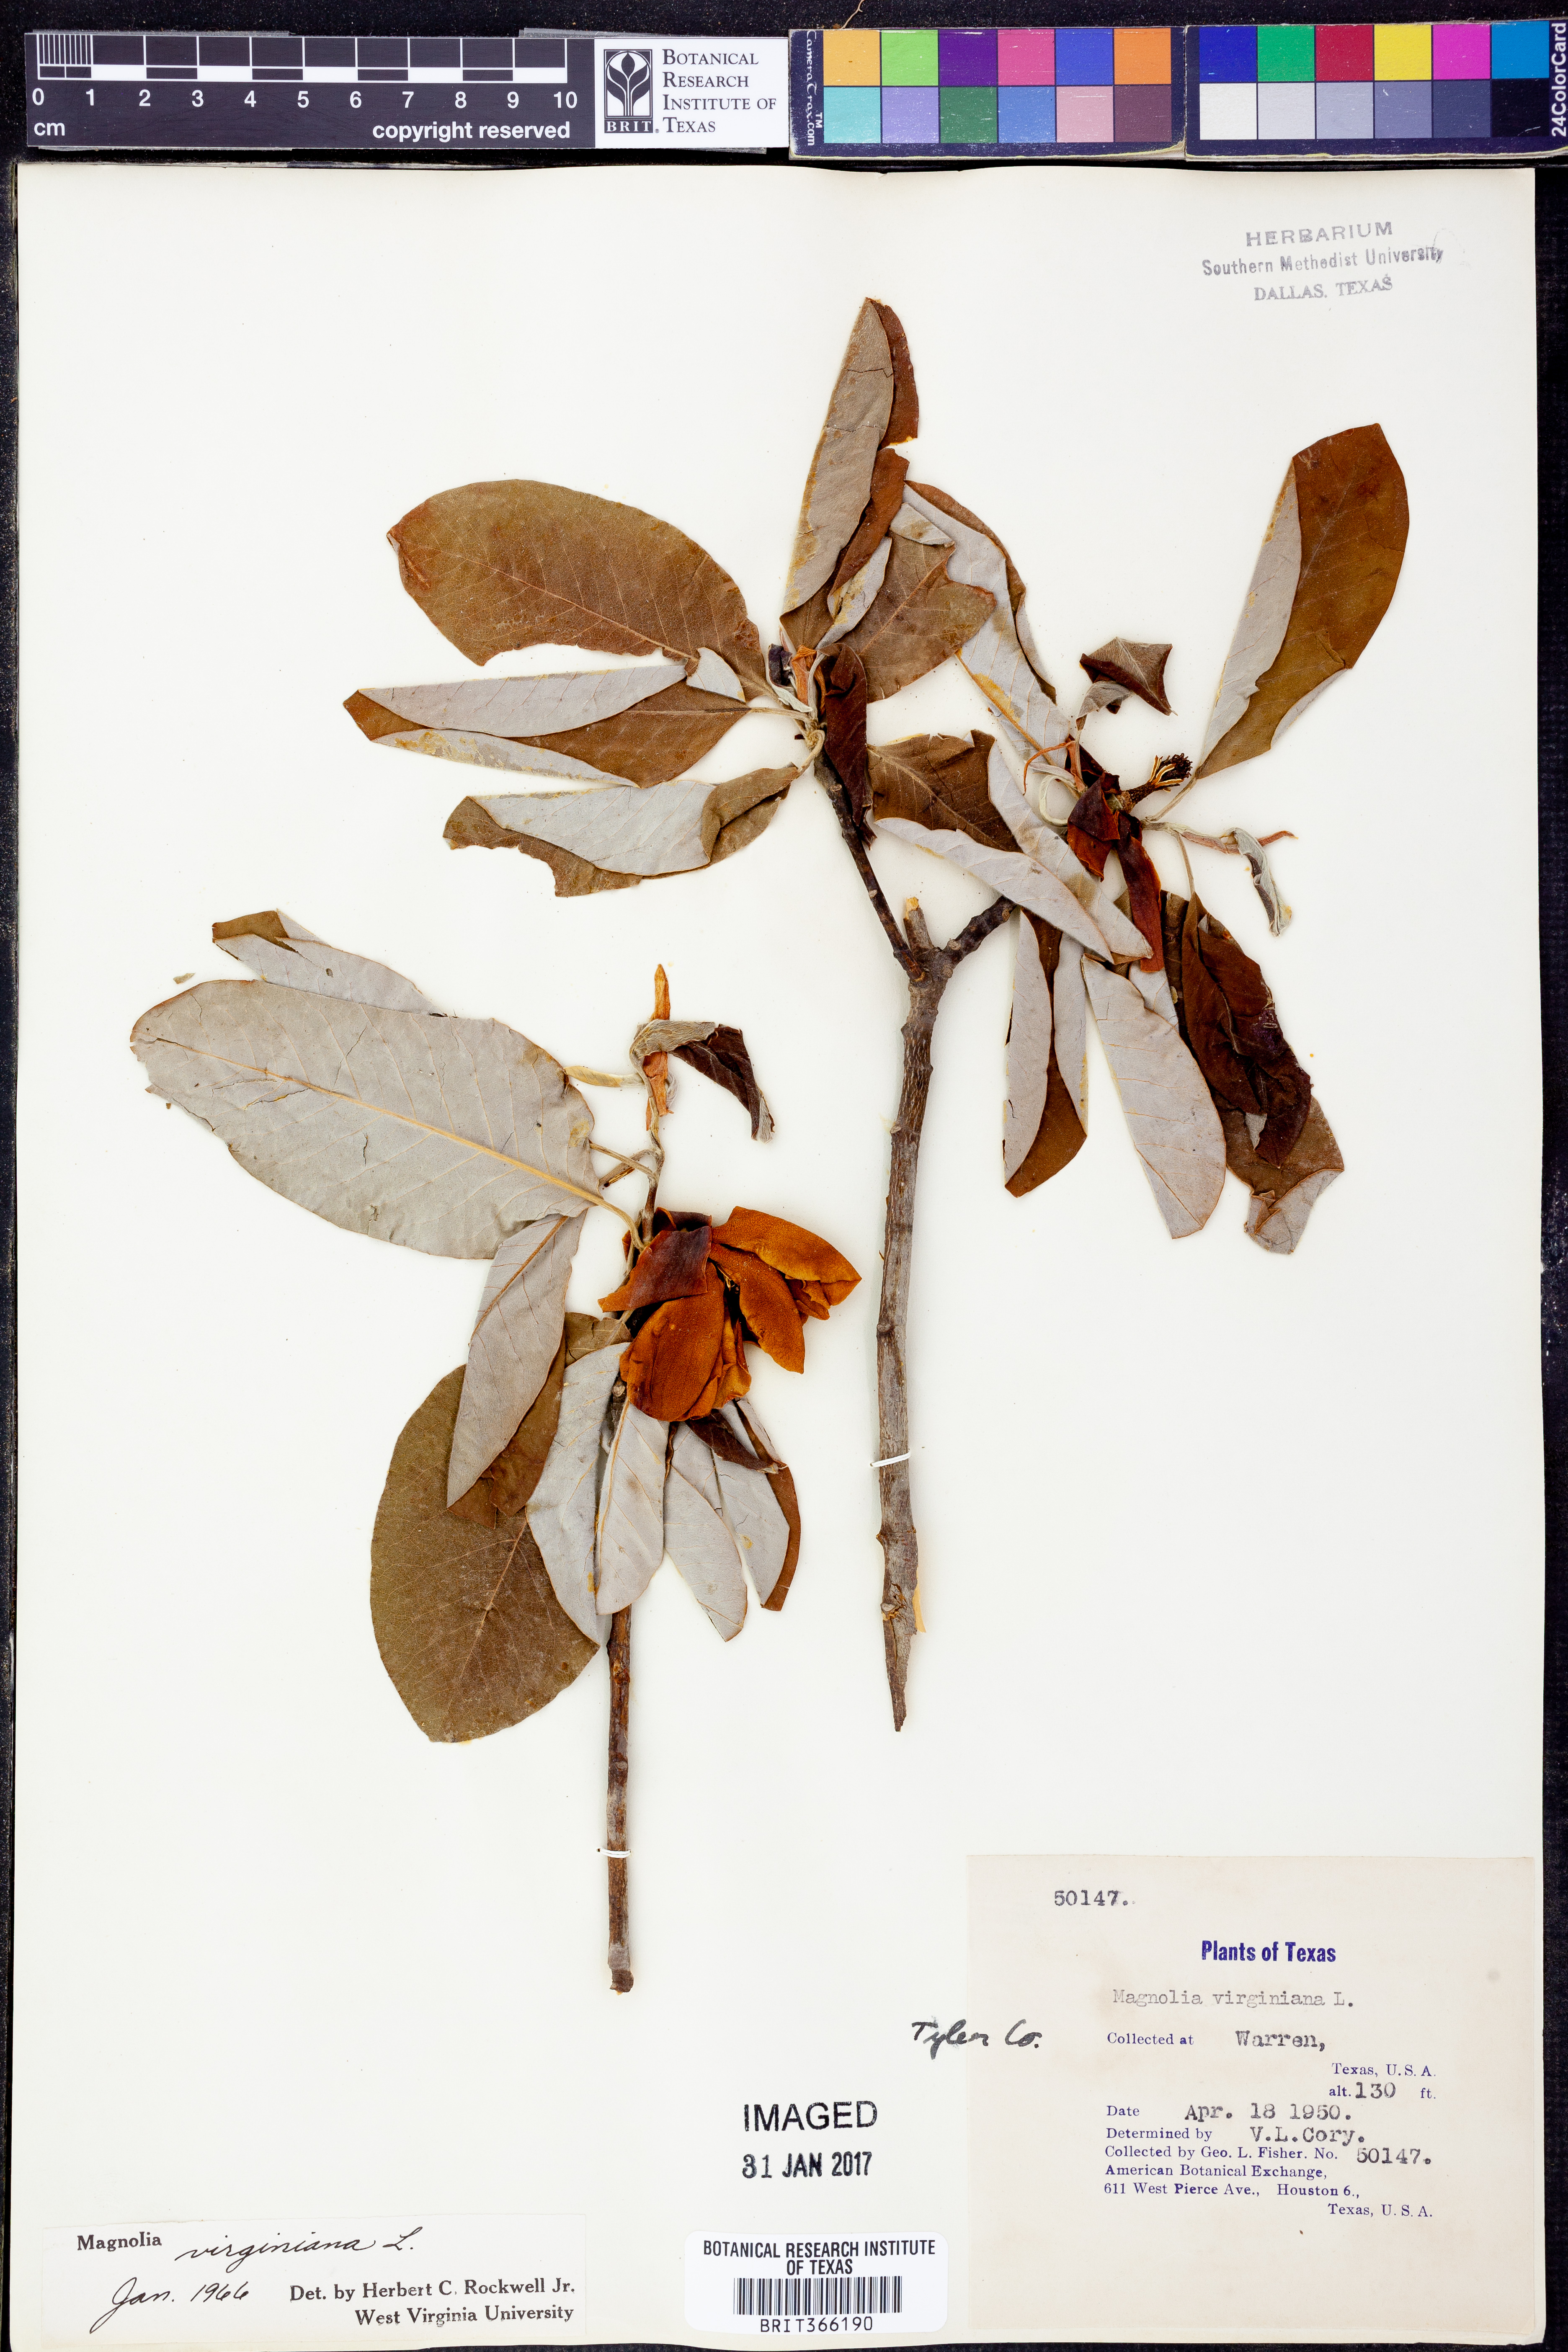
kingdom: Plantae
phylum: Tracheophyta
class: Magnoliopsida
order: Magnoliales
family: Magnoliaceae
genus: Magnolia
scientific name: Magnolia virginiana
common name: Swamp bay
